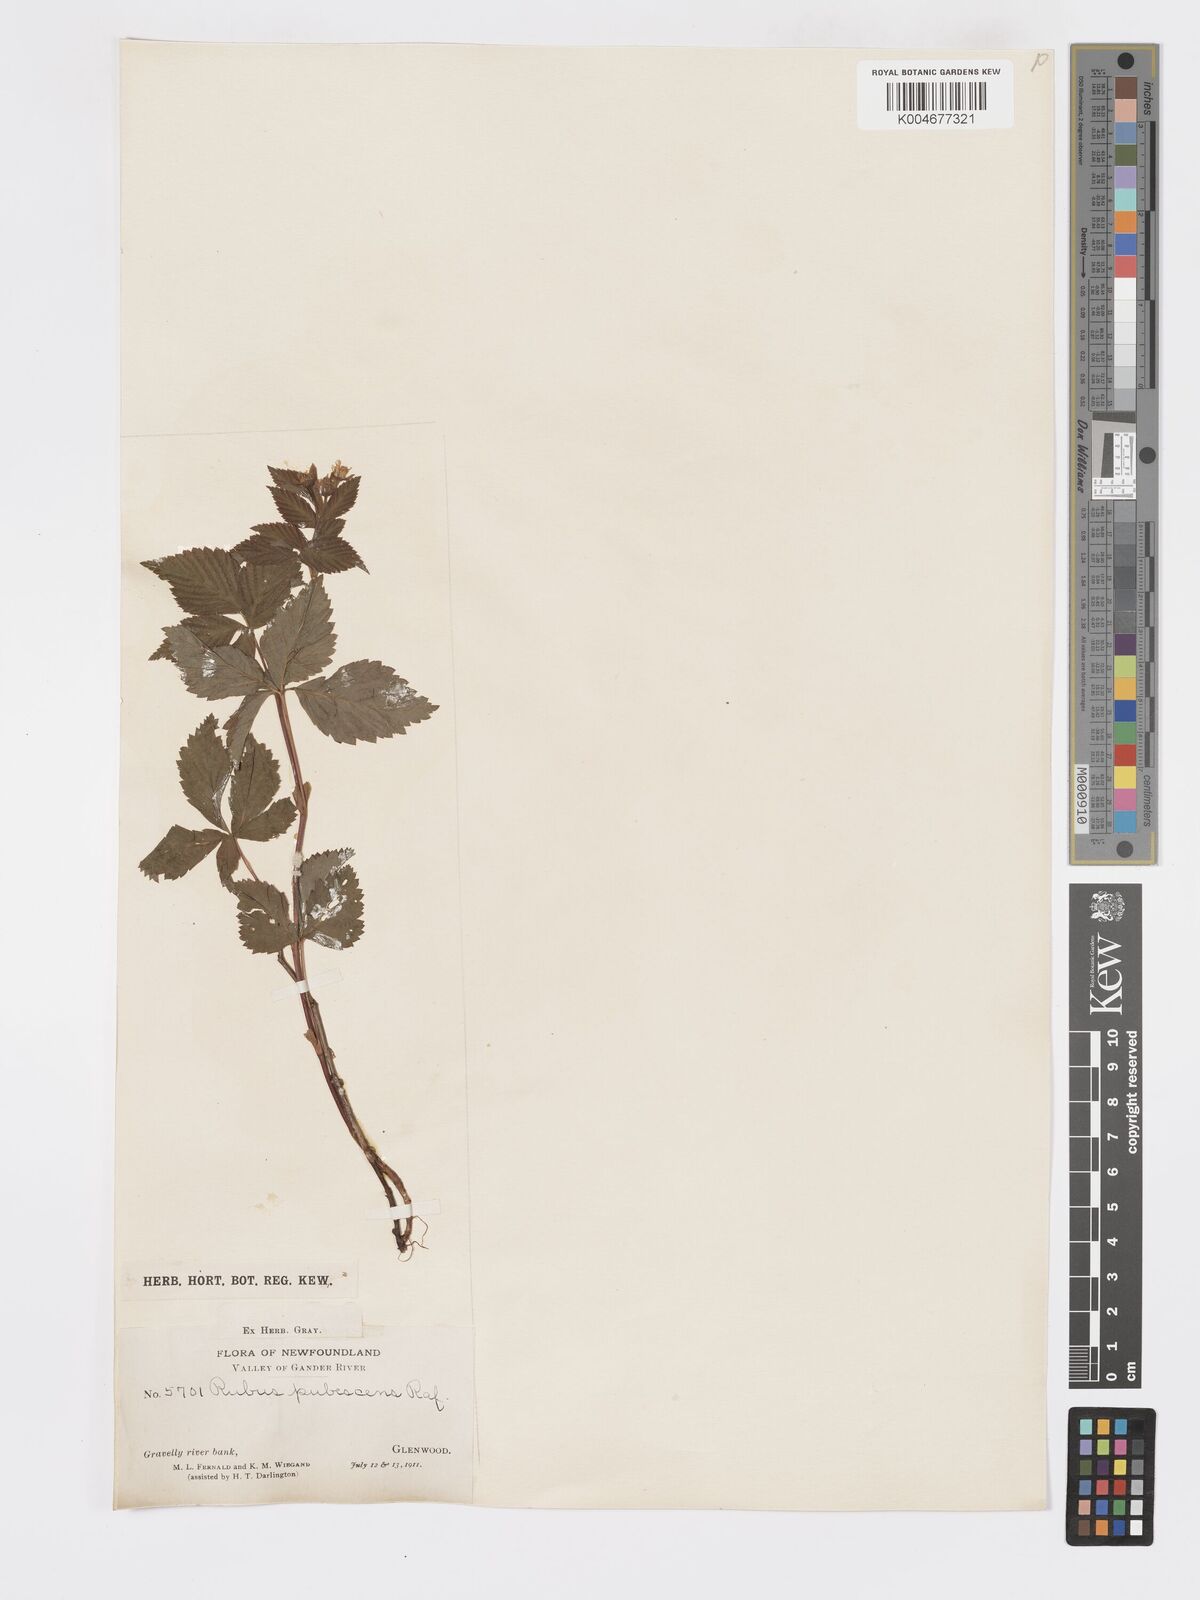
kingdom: Plantae
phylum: Tracheophyta
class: Magnoliopsida
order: Rosales
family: Rosaceae
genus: Rubus
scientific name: Rubus
